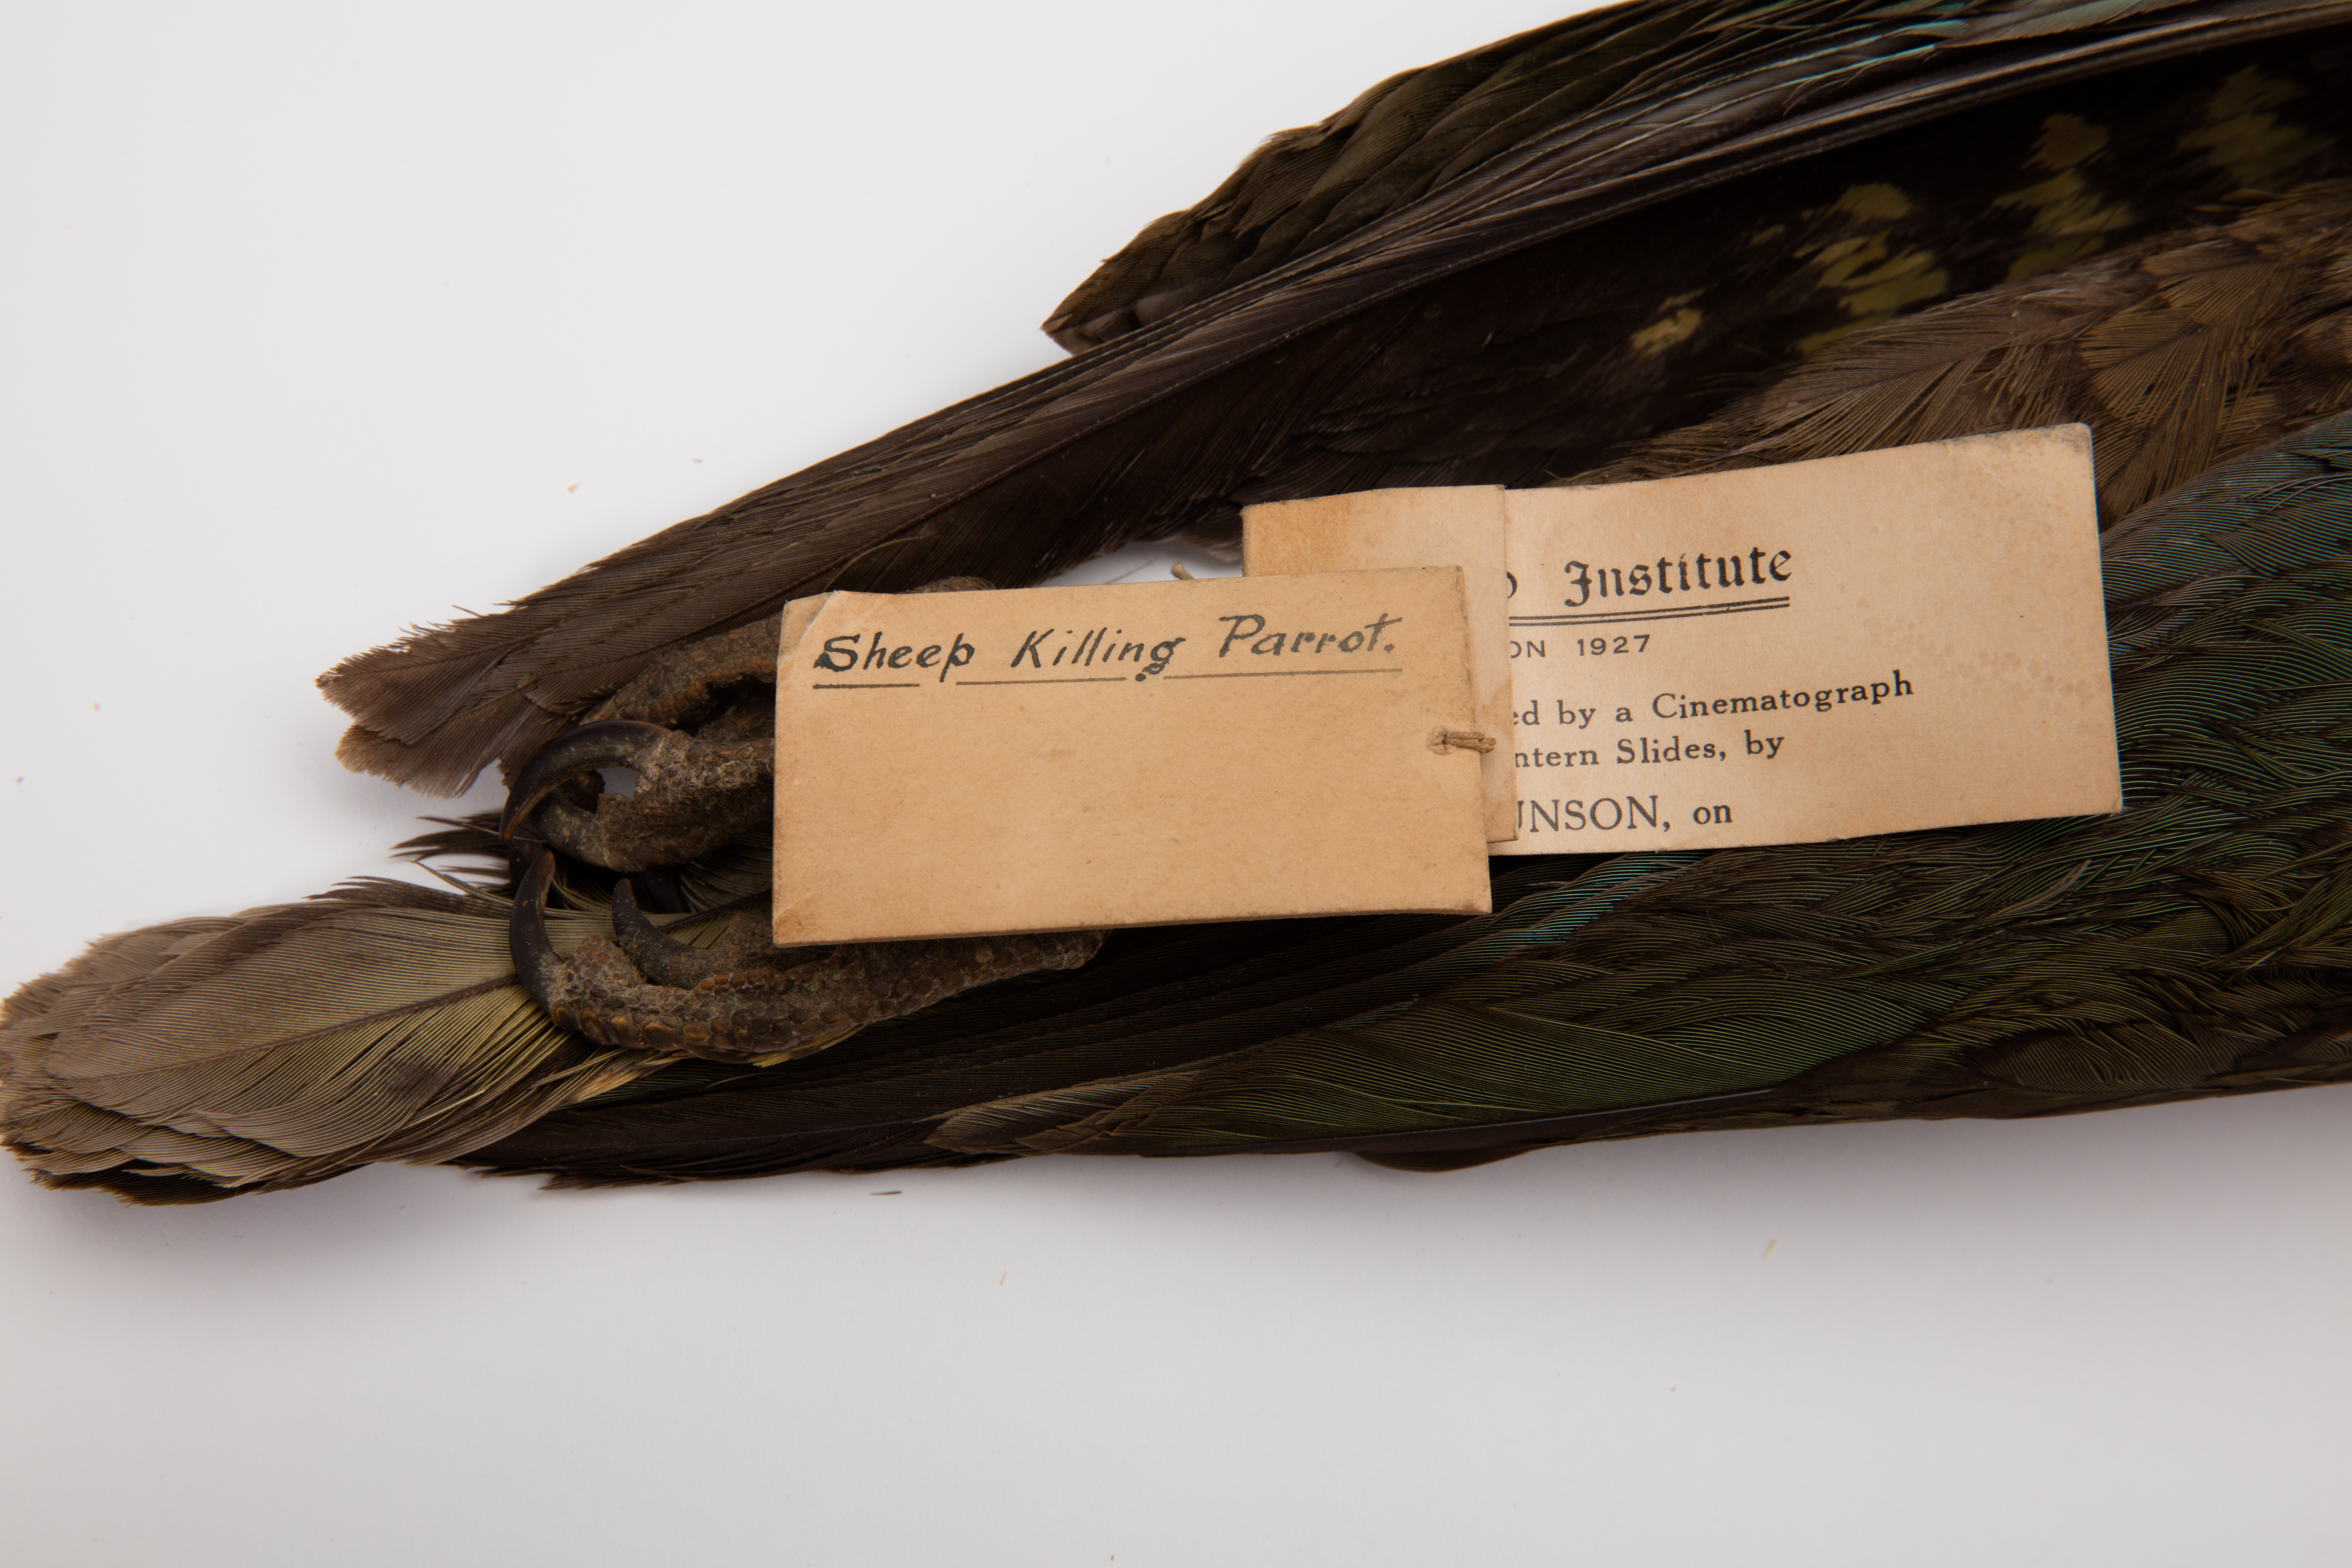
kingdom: Animalia
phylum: Chordata
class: Aves
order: Psittaciformes
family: Psittacidae
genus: Nestor
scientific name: Nestor notabilis
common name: Kea
